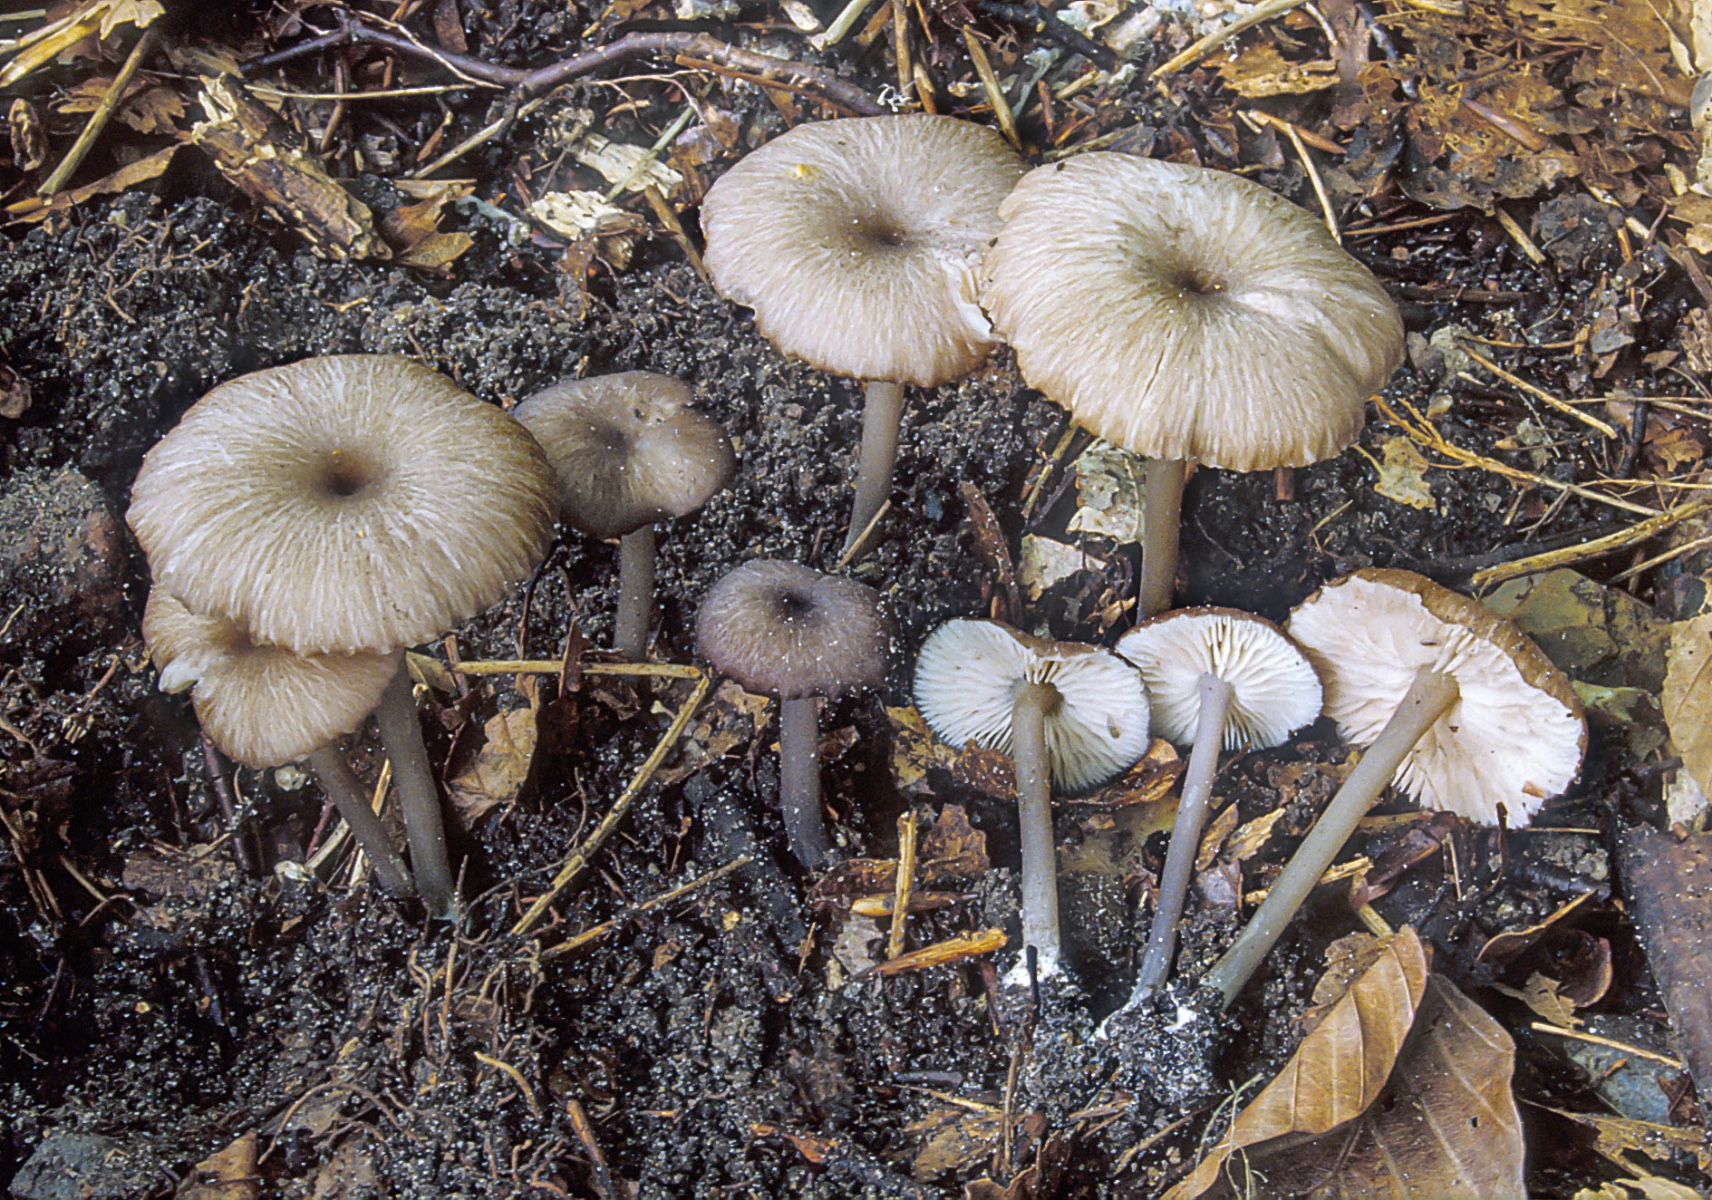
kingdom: Fungi
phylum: Basidiomycota
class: Agaricomycetes
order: Agaricales
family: Entolomataceae
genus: Entoloma
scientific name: Entoloma
